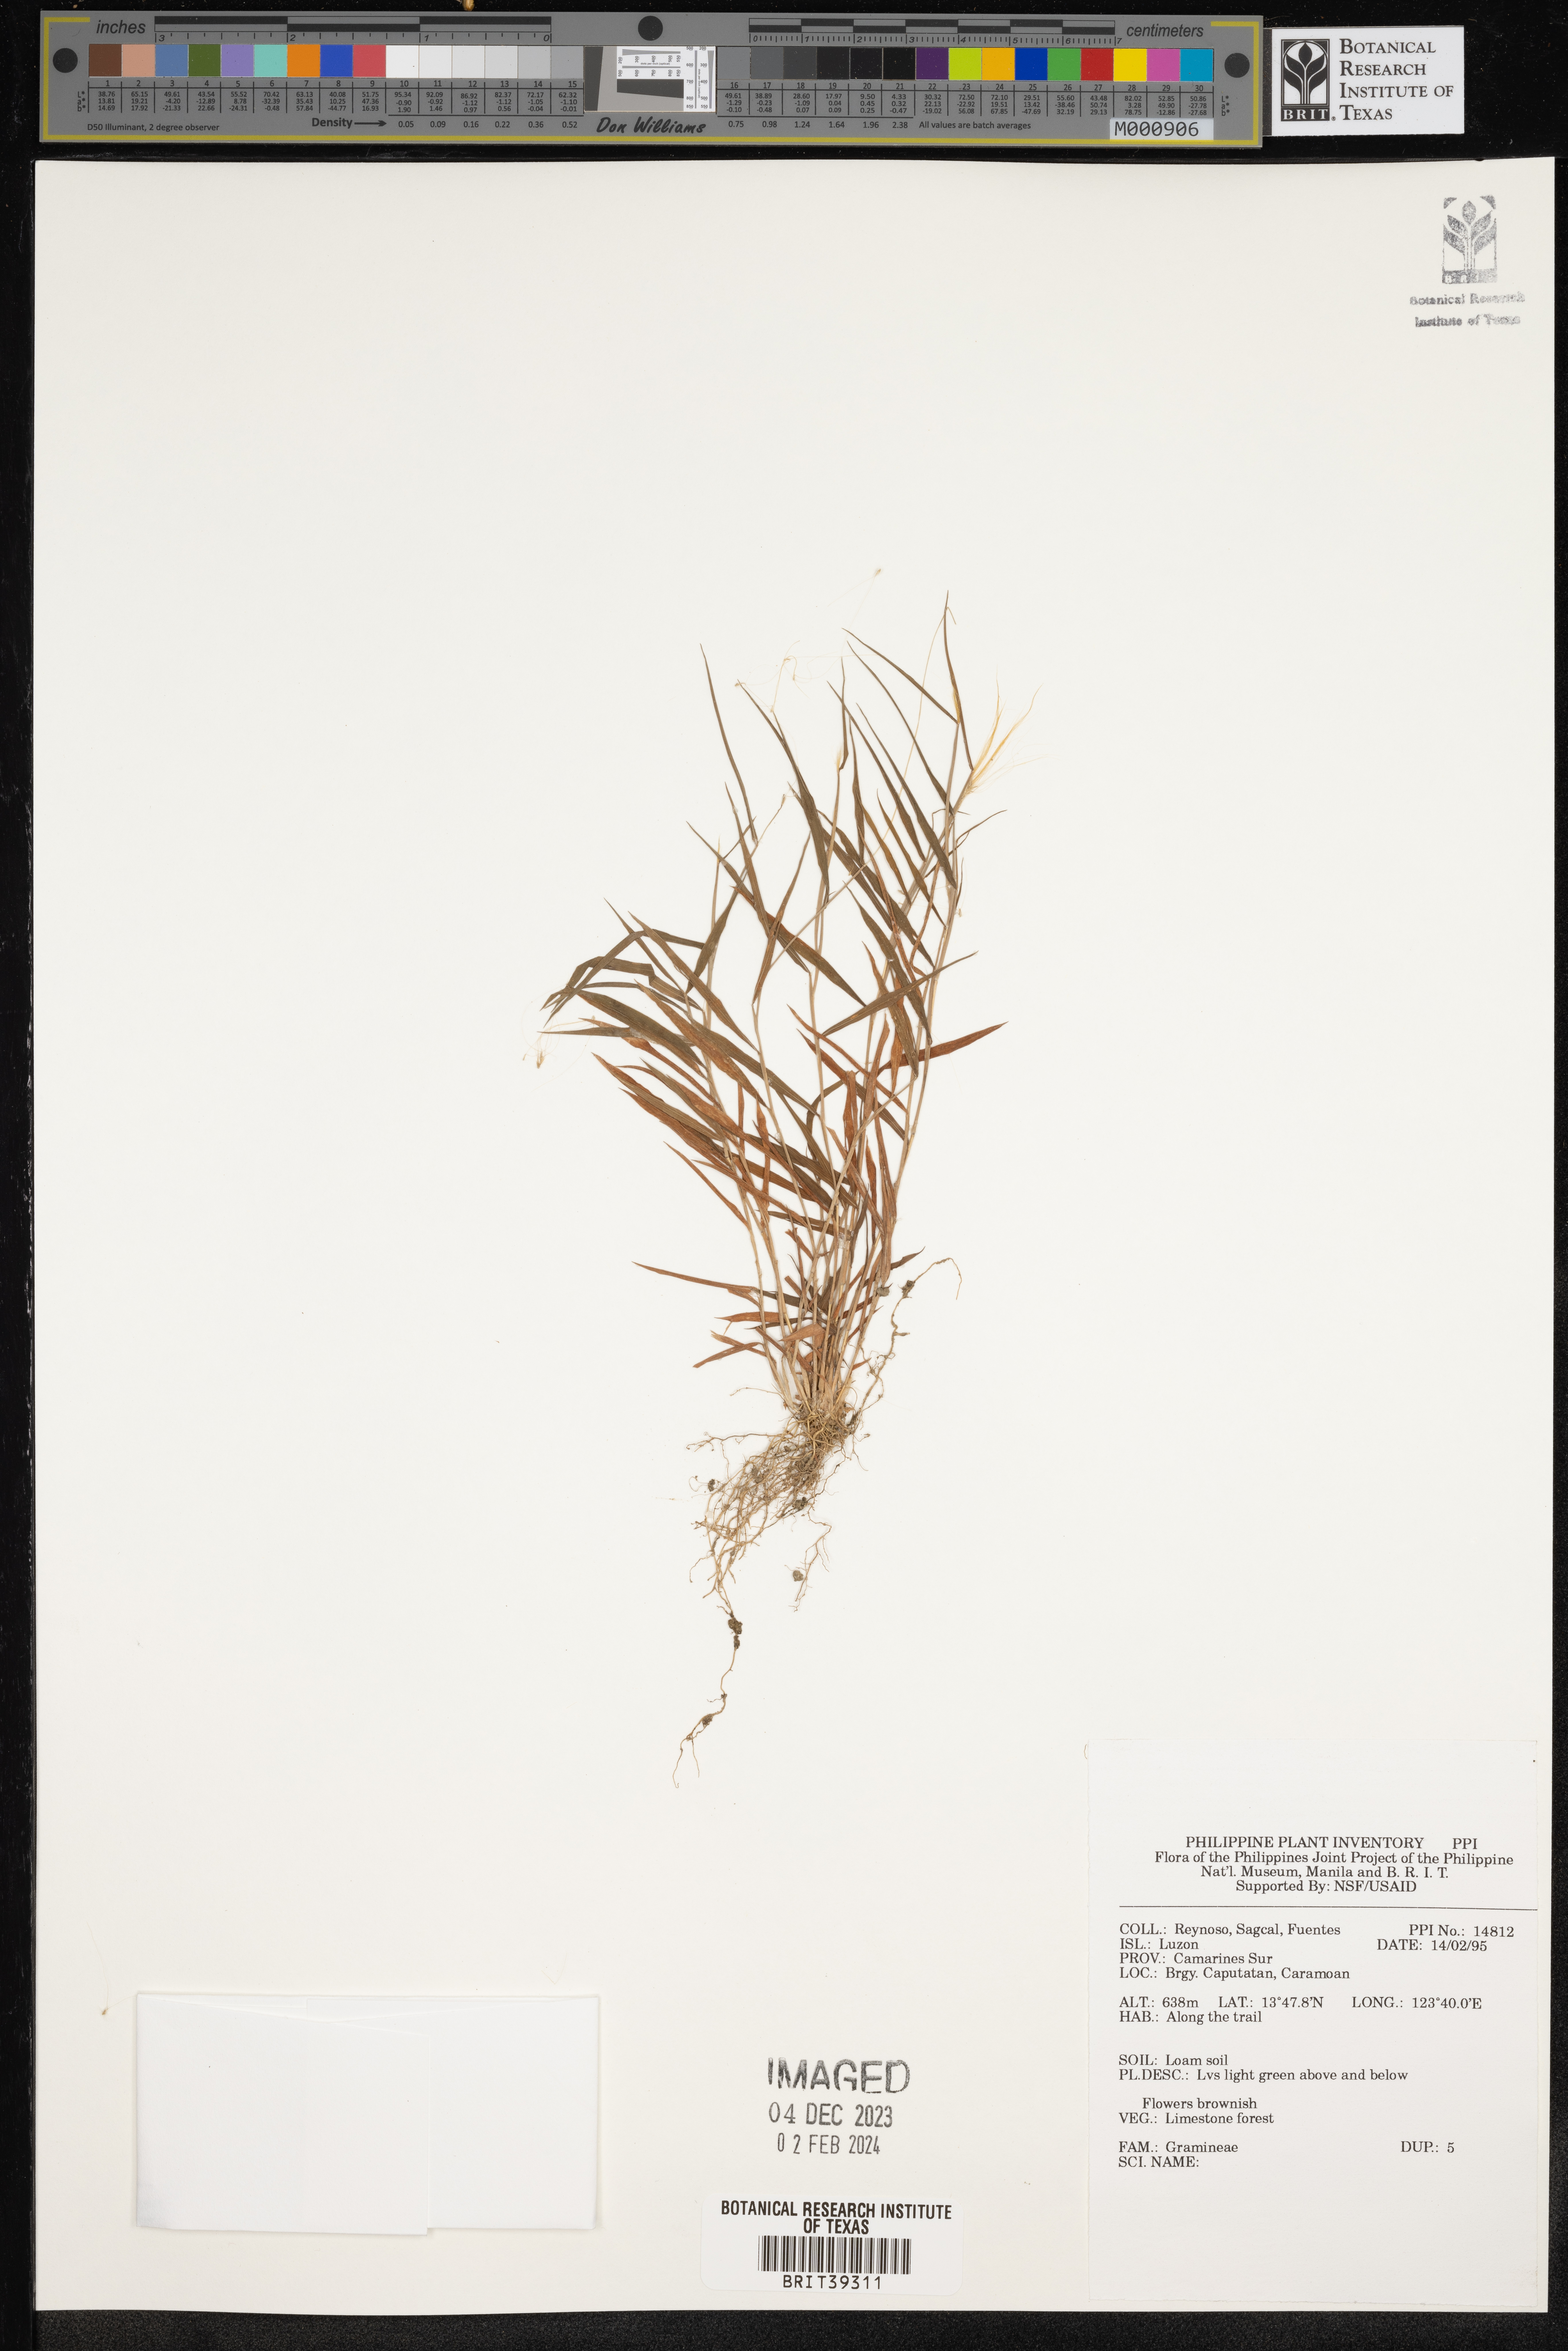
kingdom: Plantae
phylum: Tracheophyta
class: Liliopsida
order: Poales
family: Poaceae
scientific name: Poaceae
